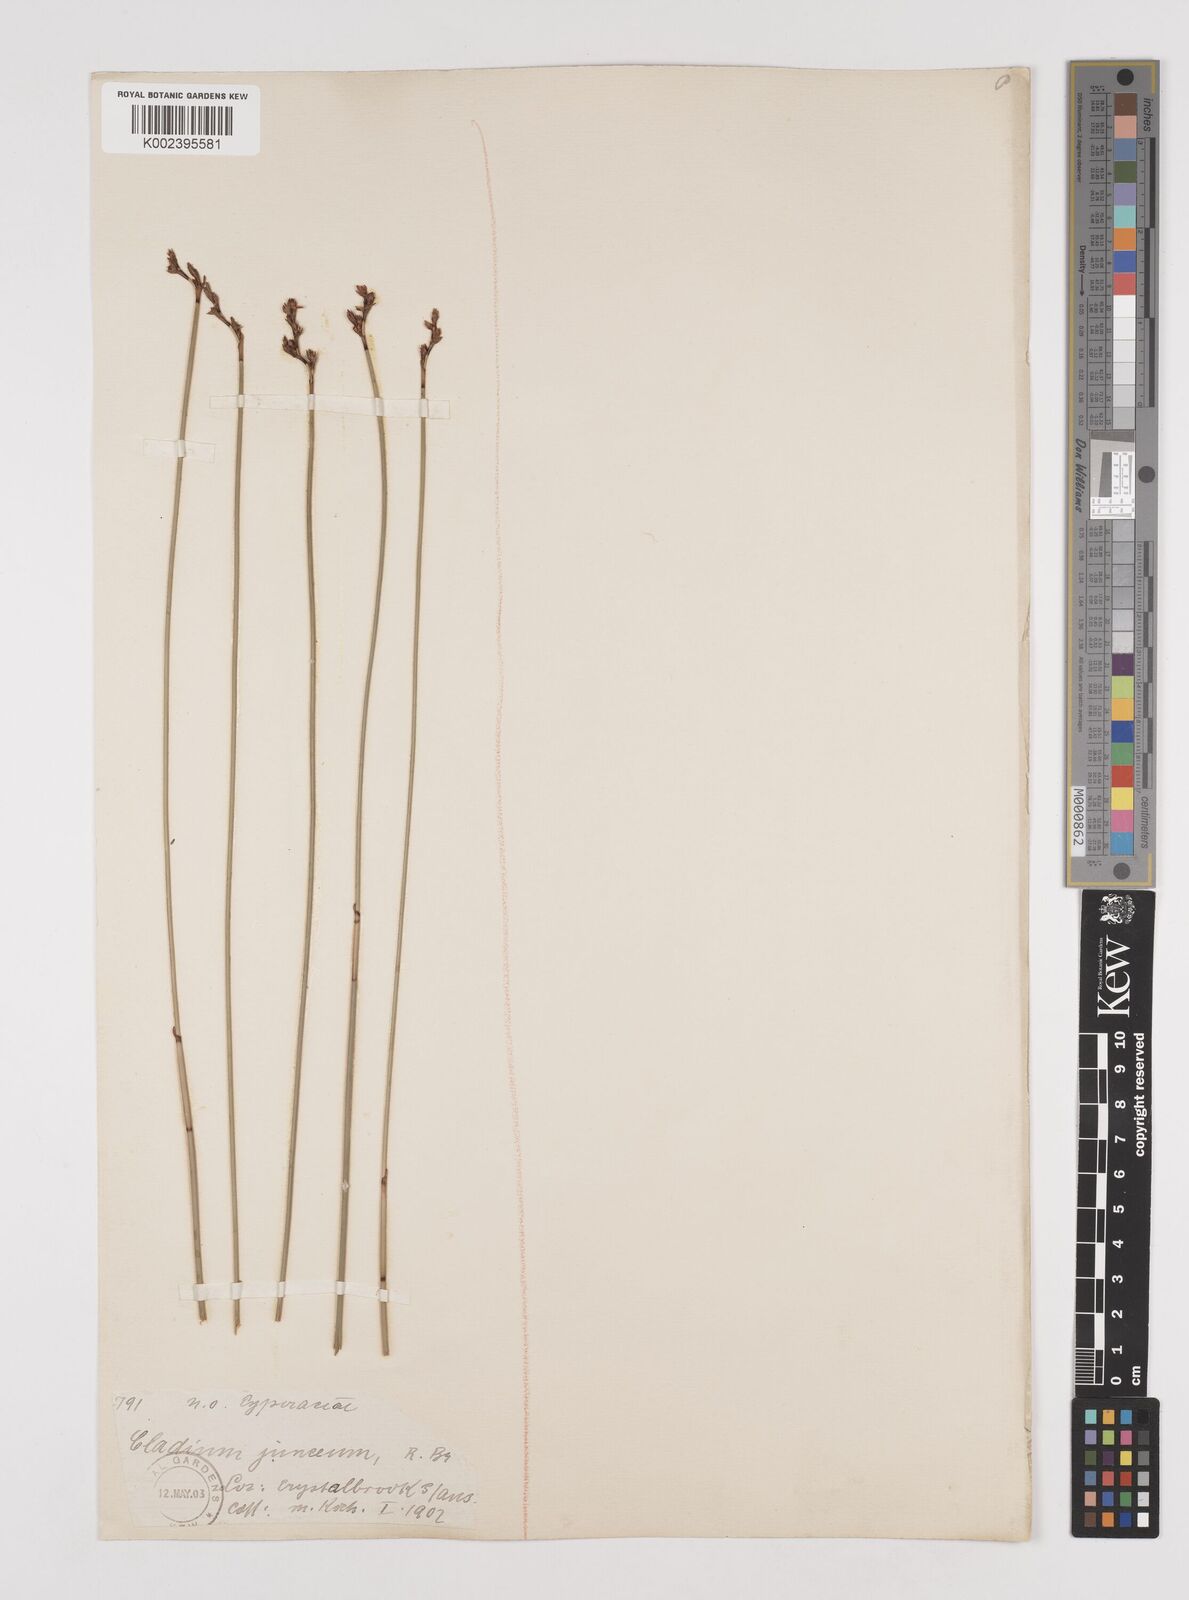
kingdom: Plantae
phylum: Tracheophyta
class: Liliopsida
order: Poales
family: Cyperaceae
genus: Machaerina
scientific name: Machaerina juncea
